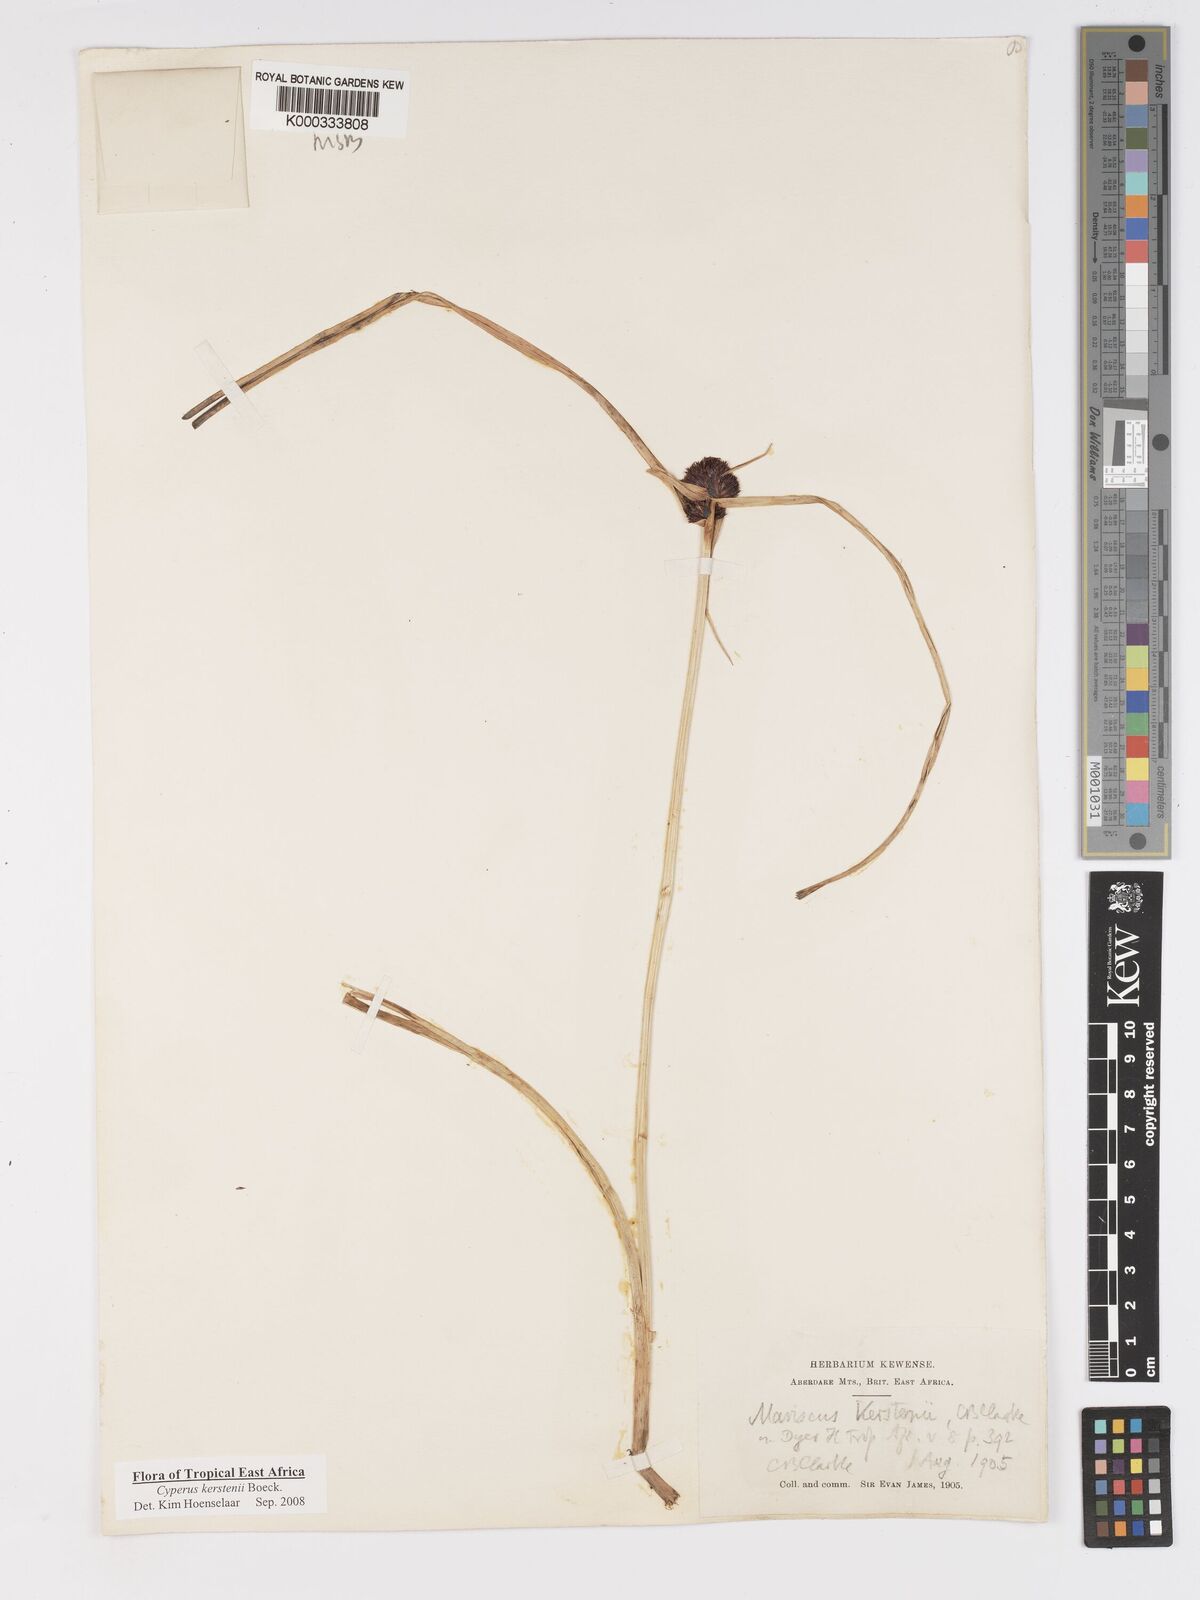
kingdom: Plantae
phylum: Tracheophyta
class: Liliopsida
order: Poales
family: Cyperaceae
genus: Cyperus
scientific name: Cyperus kerstenii
